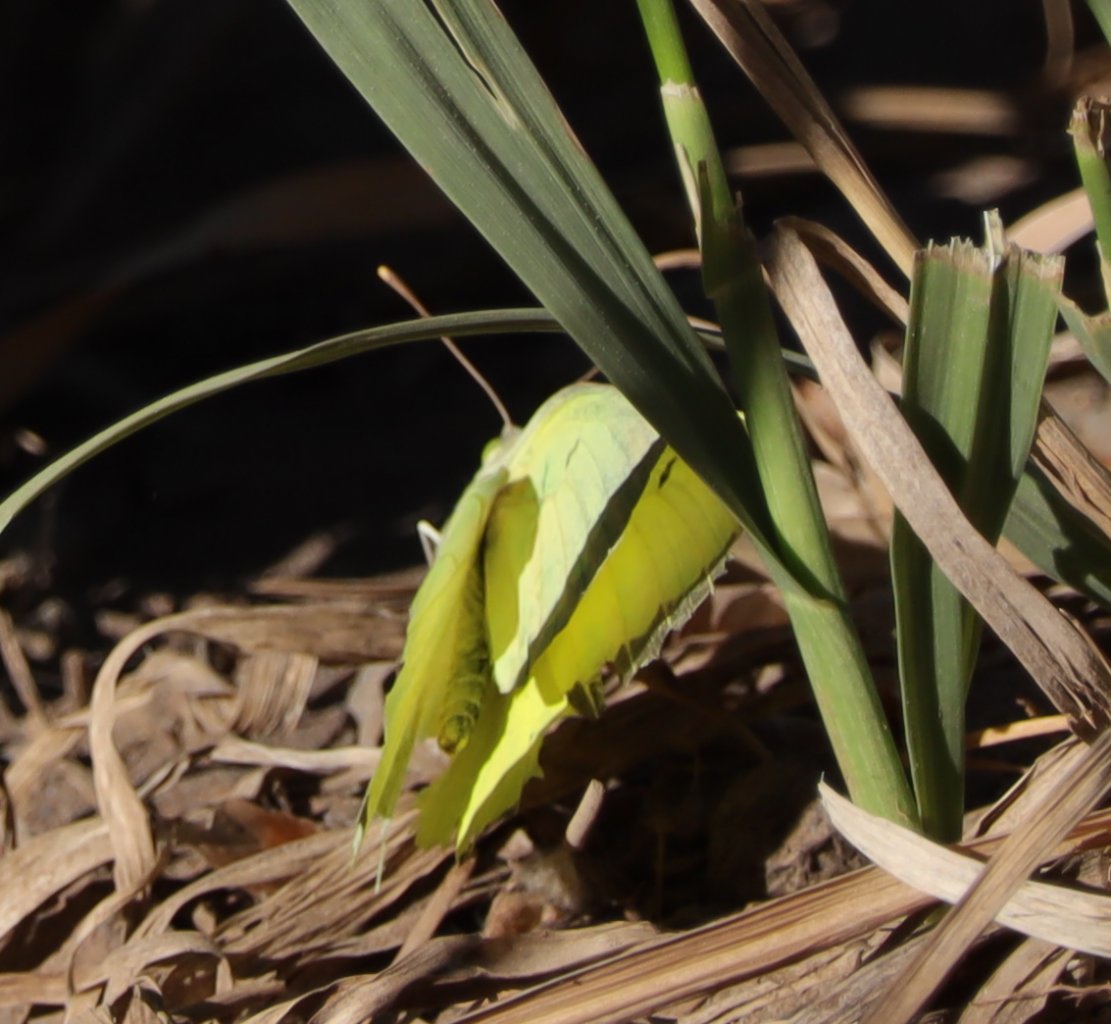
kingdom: Animalia
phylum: Arthropoda
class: Insecta
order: Lepidoptera
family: Pieridae
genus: Colias
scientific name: Colias alexandra
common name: Queen Alexandra's Sulphur
